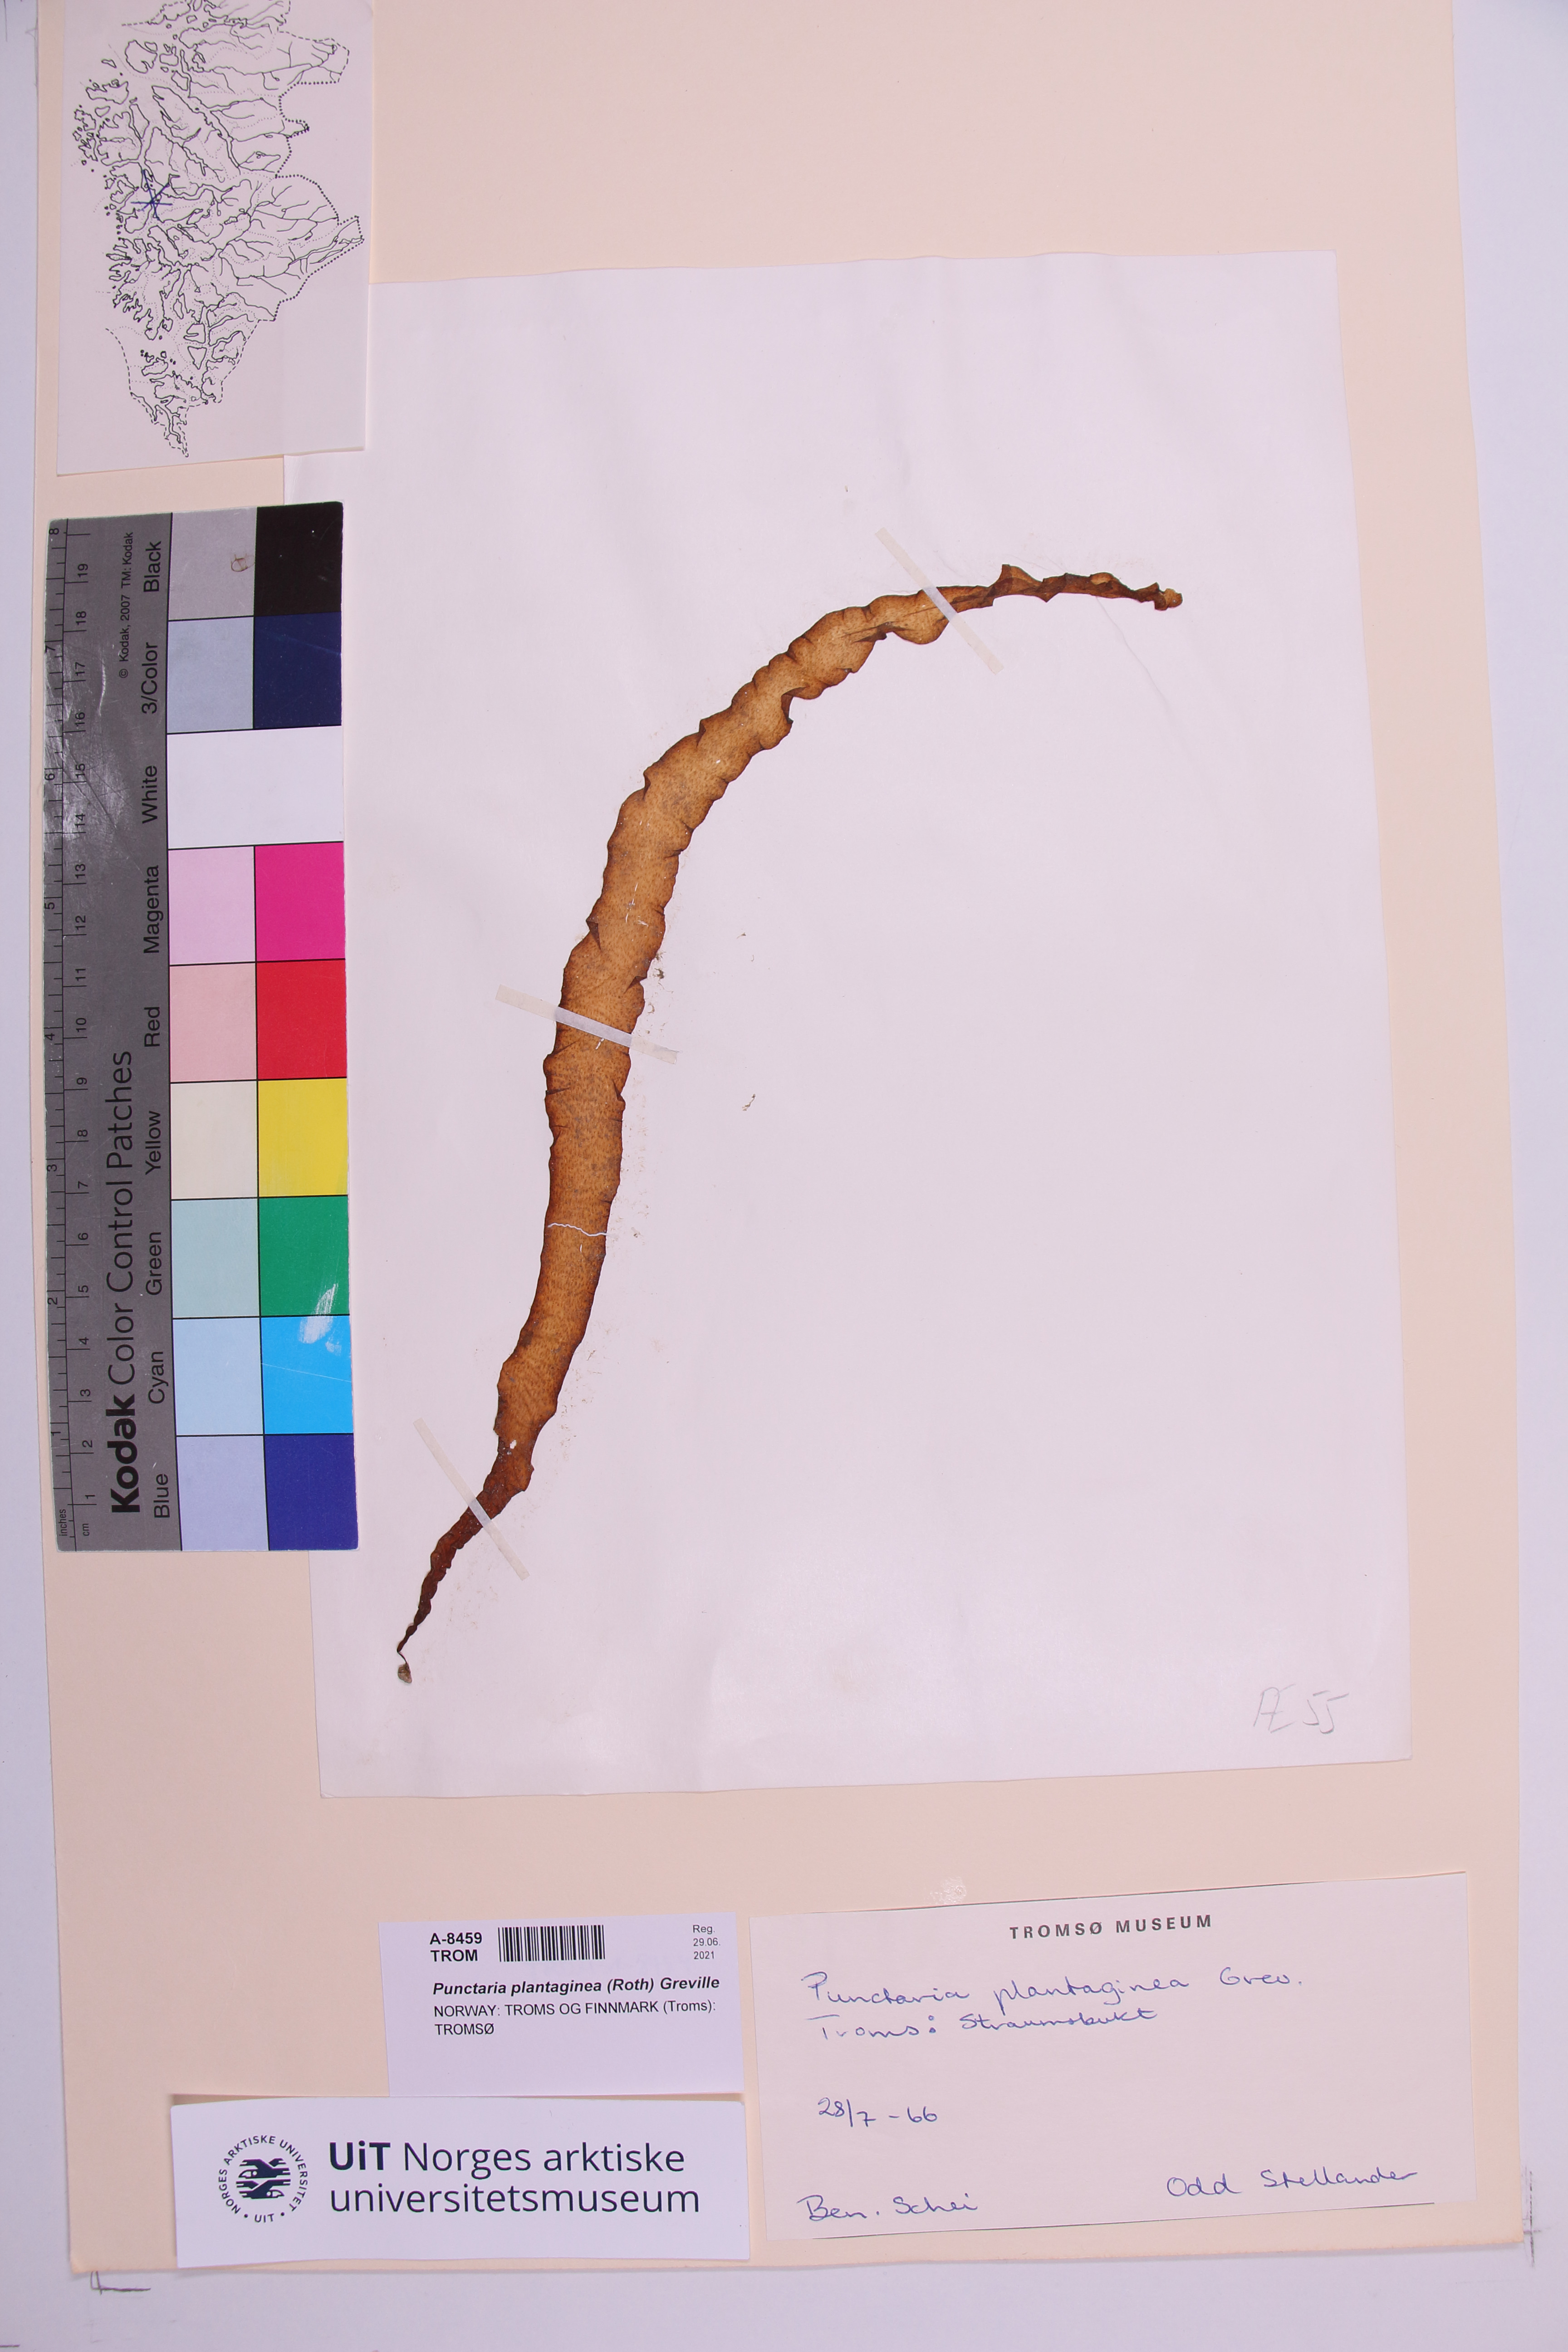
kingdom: Chromista
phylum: Ochrophyta
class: Phaeophyceae
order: Ectocarpales
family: Chordariaceae
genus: Punctaria
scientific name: Punctaria plantaginea
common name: Ribbon weed
